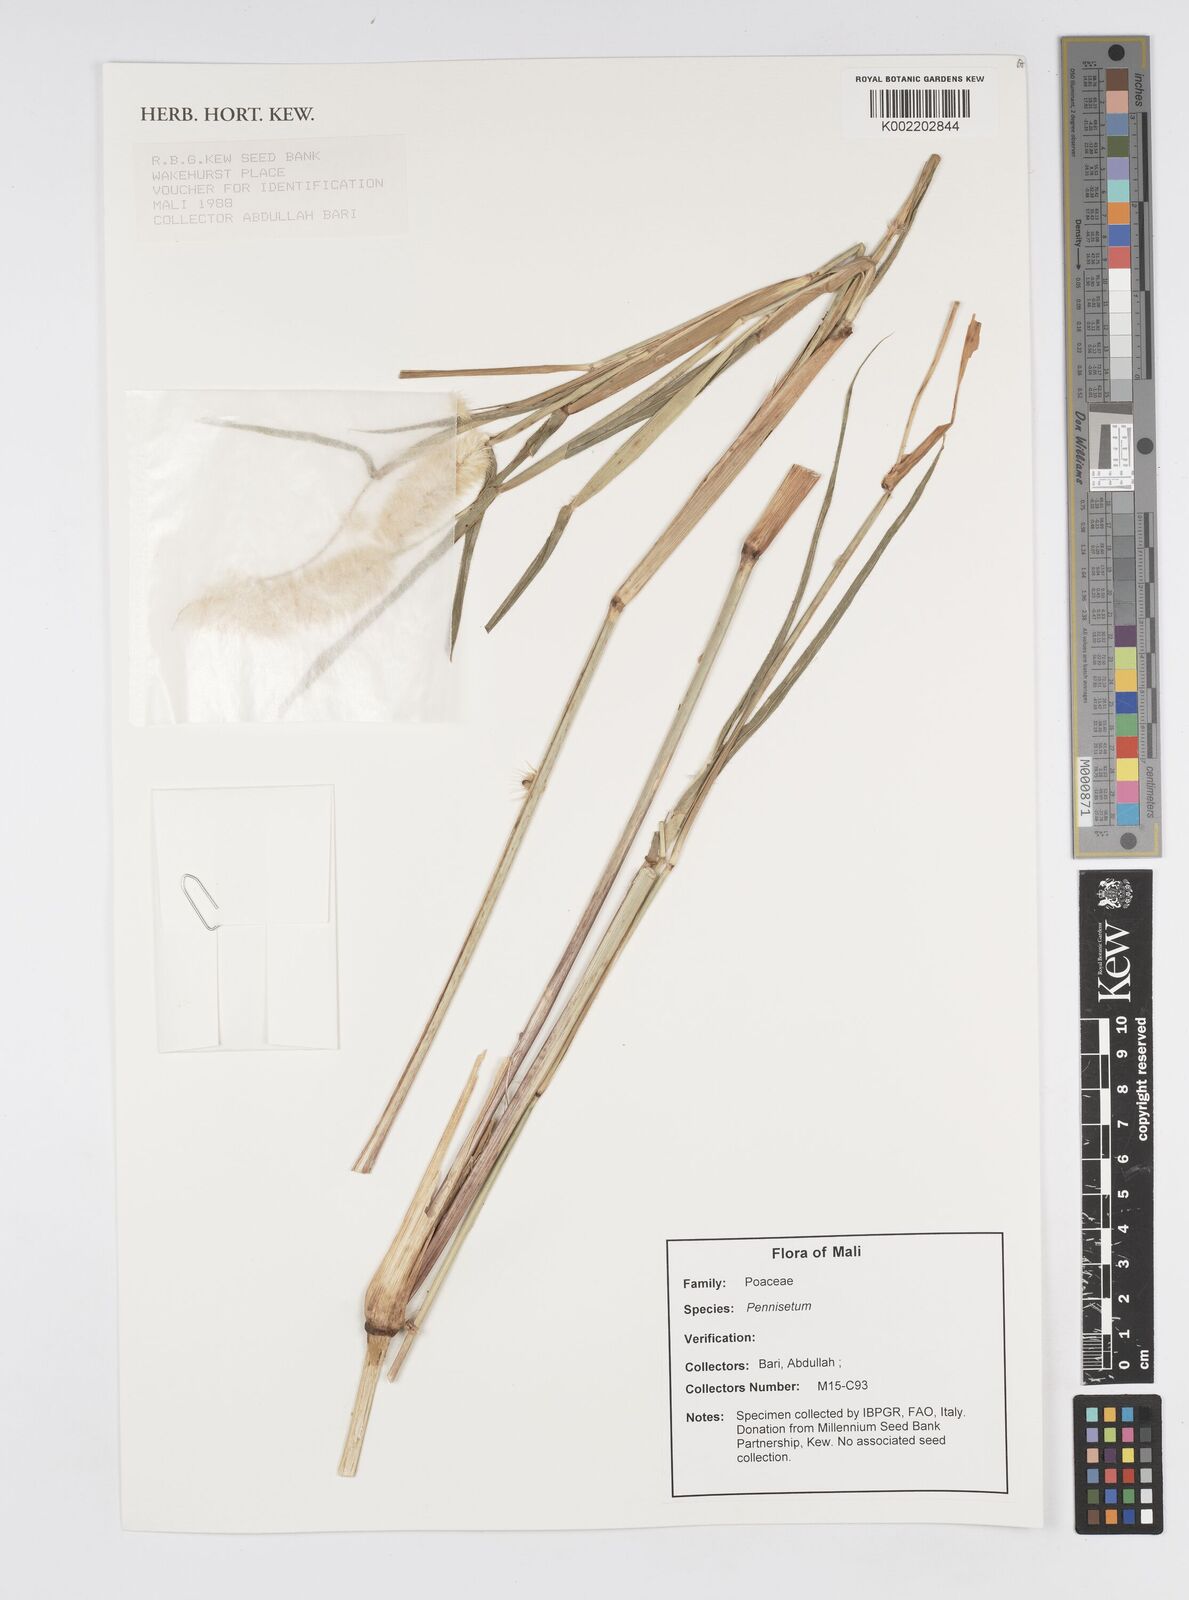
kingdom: Plantae
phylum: Tracheophyta
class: Liliopsida
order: Poales
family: Poaceae
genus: Cenchrus
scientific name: Cenchrus Pennisetum spec
